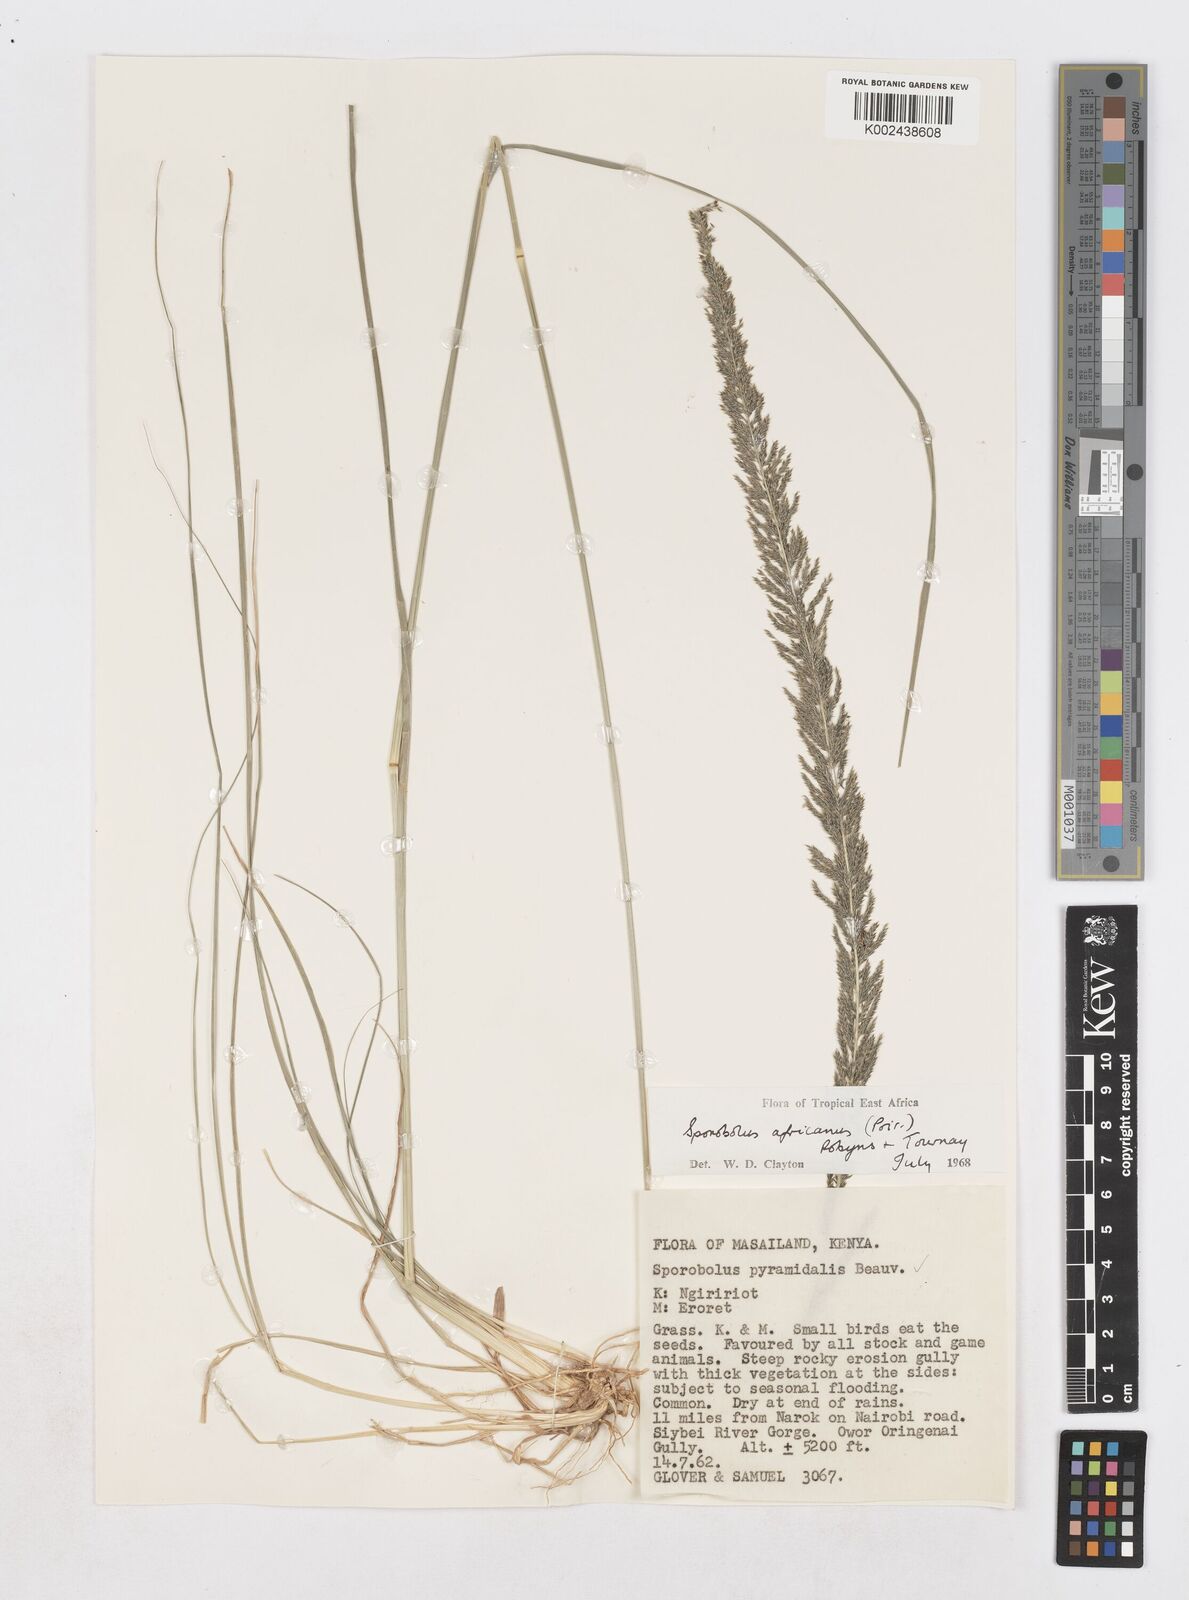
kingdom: Plantae
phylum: Tracheophyta
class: Liliopsida
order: Poales
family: Poaceae
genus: Sporobolus
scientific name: Sporobolus africanus
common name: African dropseed
